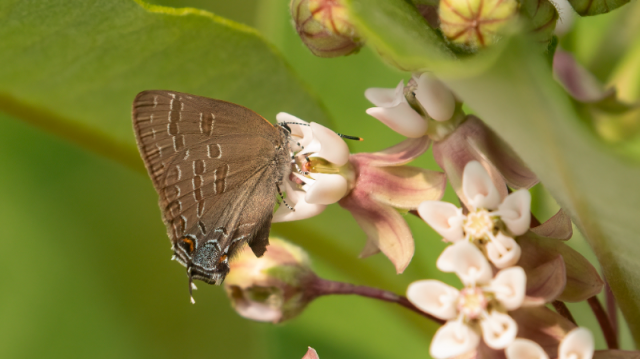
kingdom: Animalia
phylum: Arthropoda
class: Insecta
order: Lepidoptera
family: Lycaenidae
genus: Strymon
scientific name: Strymon caryaevorus
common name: Hickory Hairstreak
